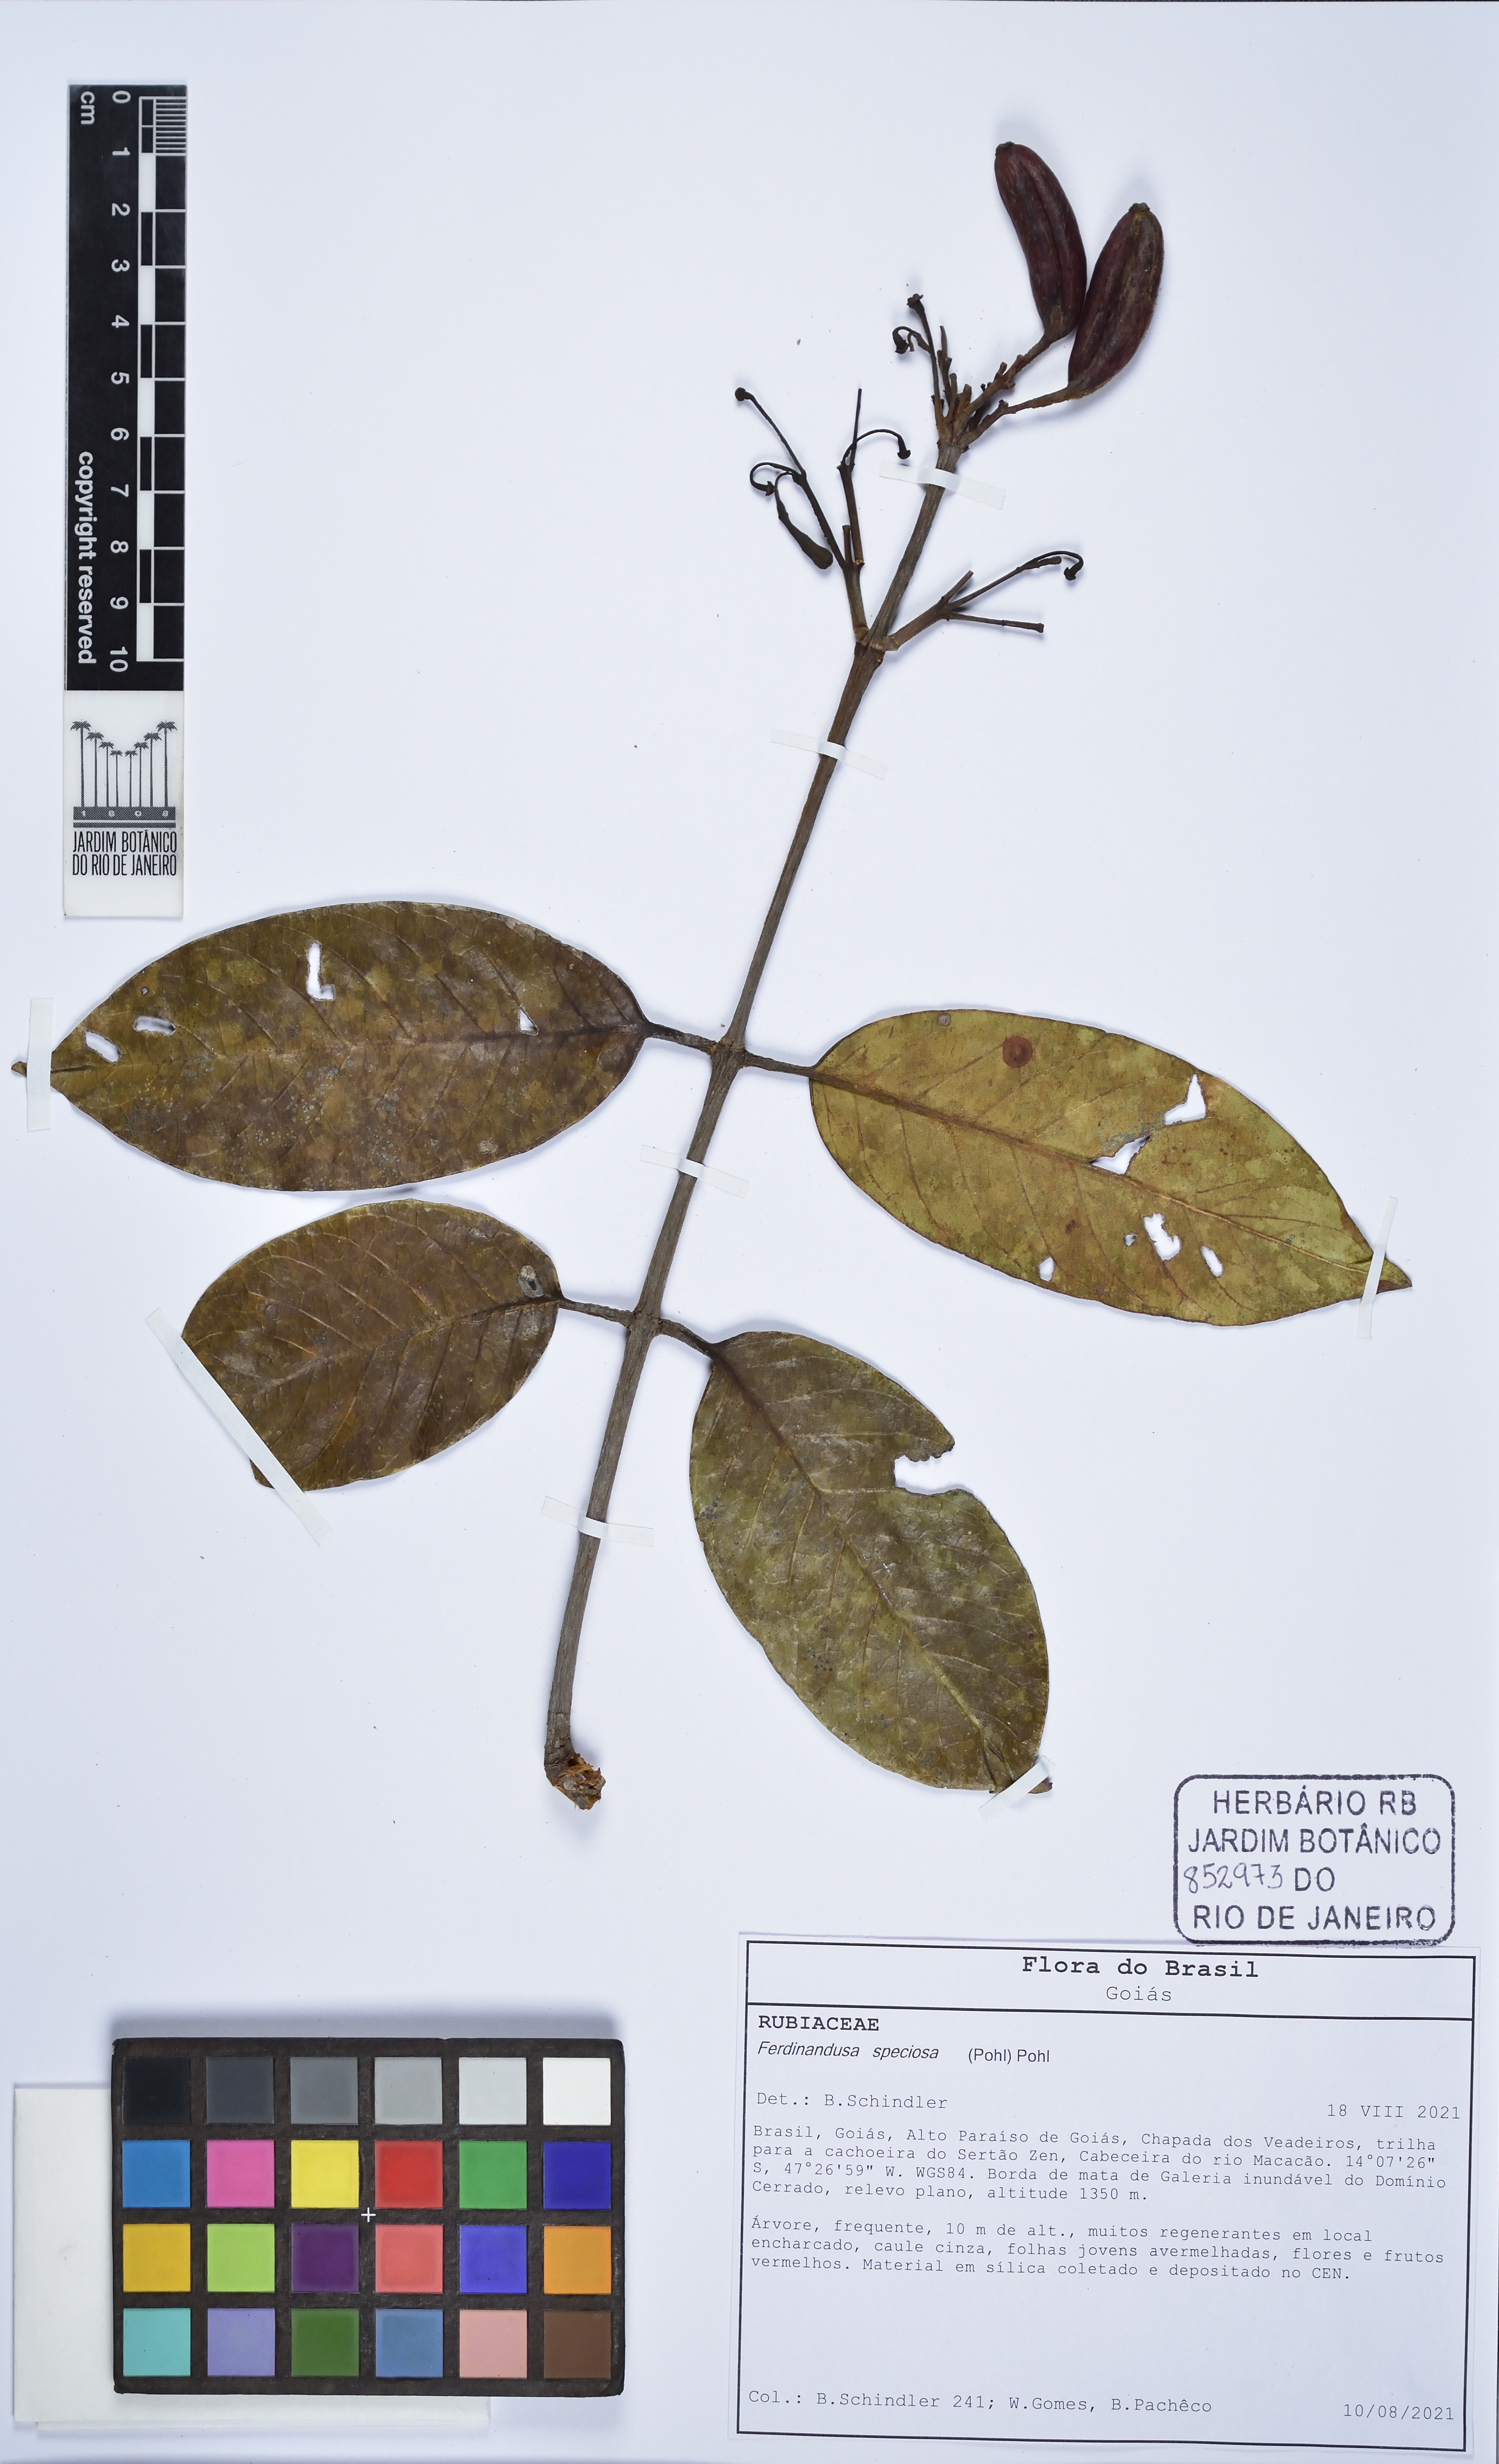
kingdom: Plantae
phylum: Tracheophyta
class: Magnoliopsida
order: Gentianales
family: Rubiaceae
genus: Ferdinandusa
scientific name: Ferdinandusa speciosa
